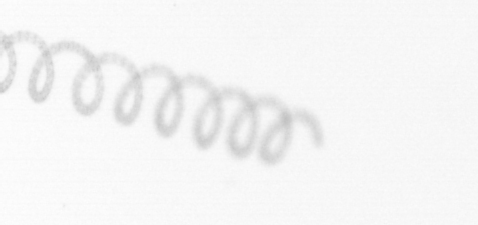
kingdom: Chromista
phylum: Ochrophyta
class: Bacillariophyceae
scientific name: Bacillariophyceae
